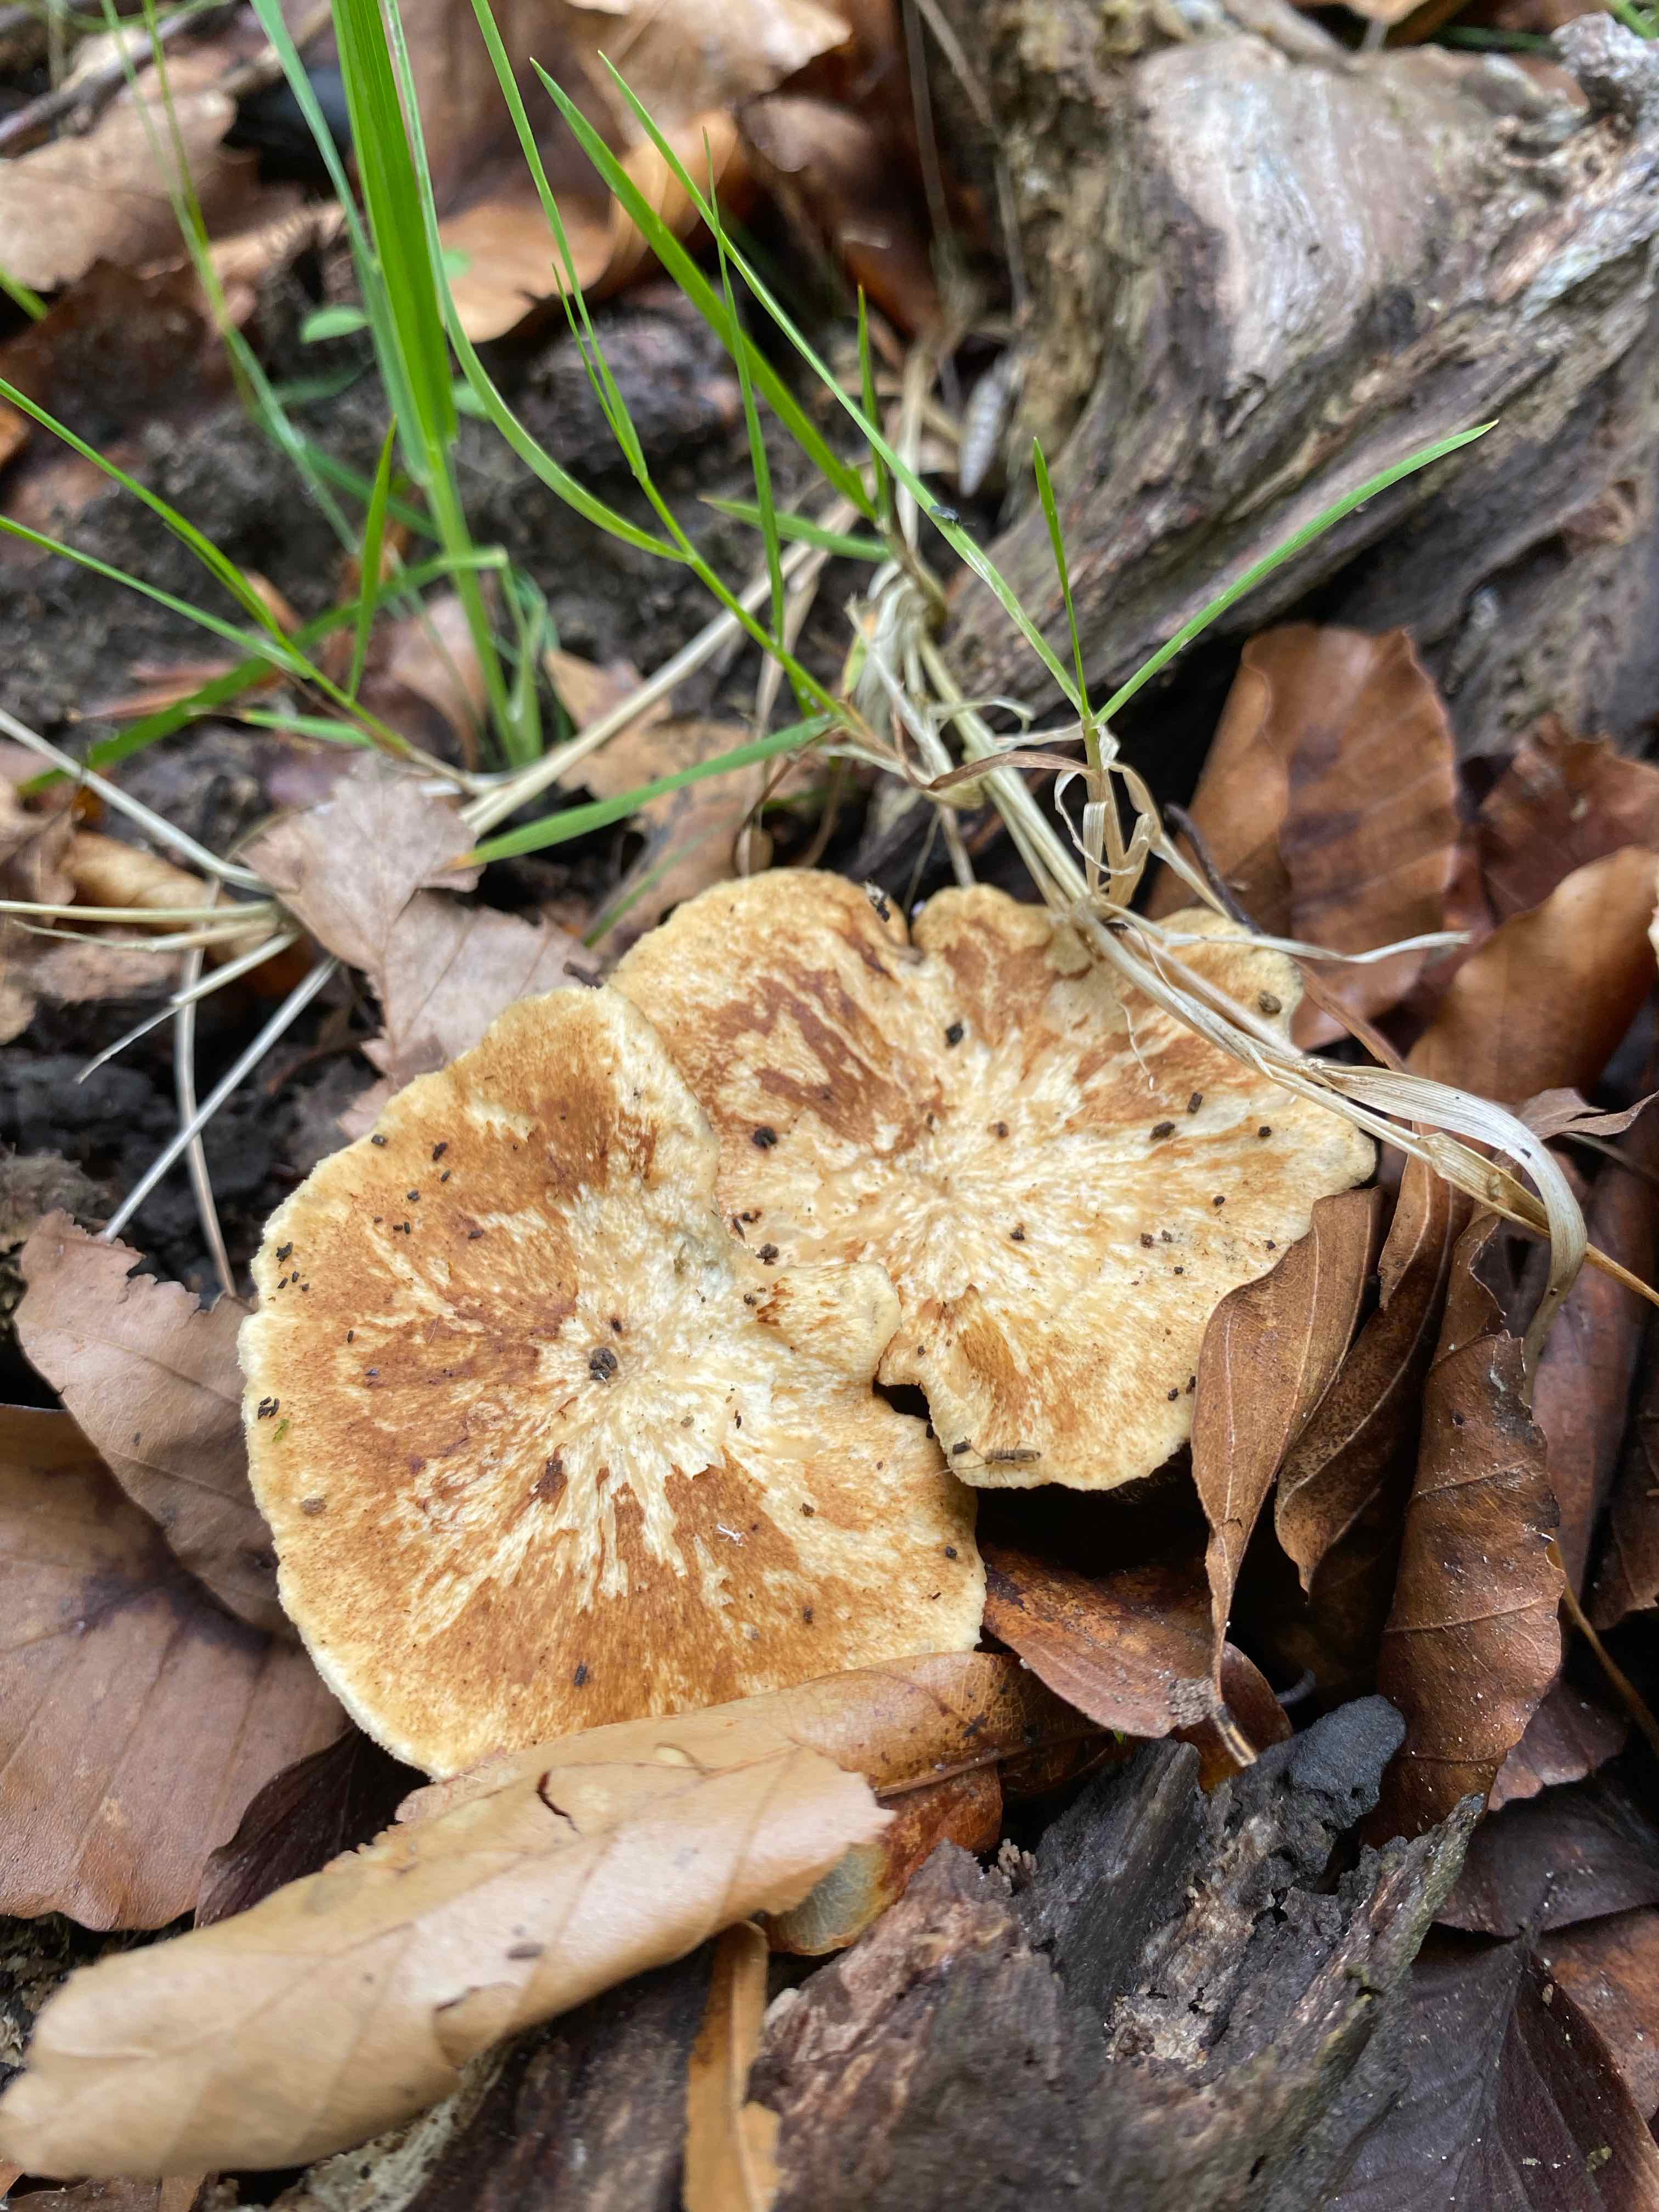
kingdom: Fungi
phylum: Basidiomycota
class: Agaricomycetes
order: Polyporales
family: Polyporaceae
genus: Lentinus
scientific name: Lentinus substrictus
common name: forårs-stilkporesvamp
